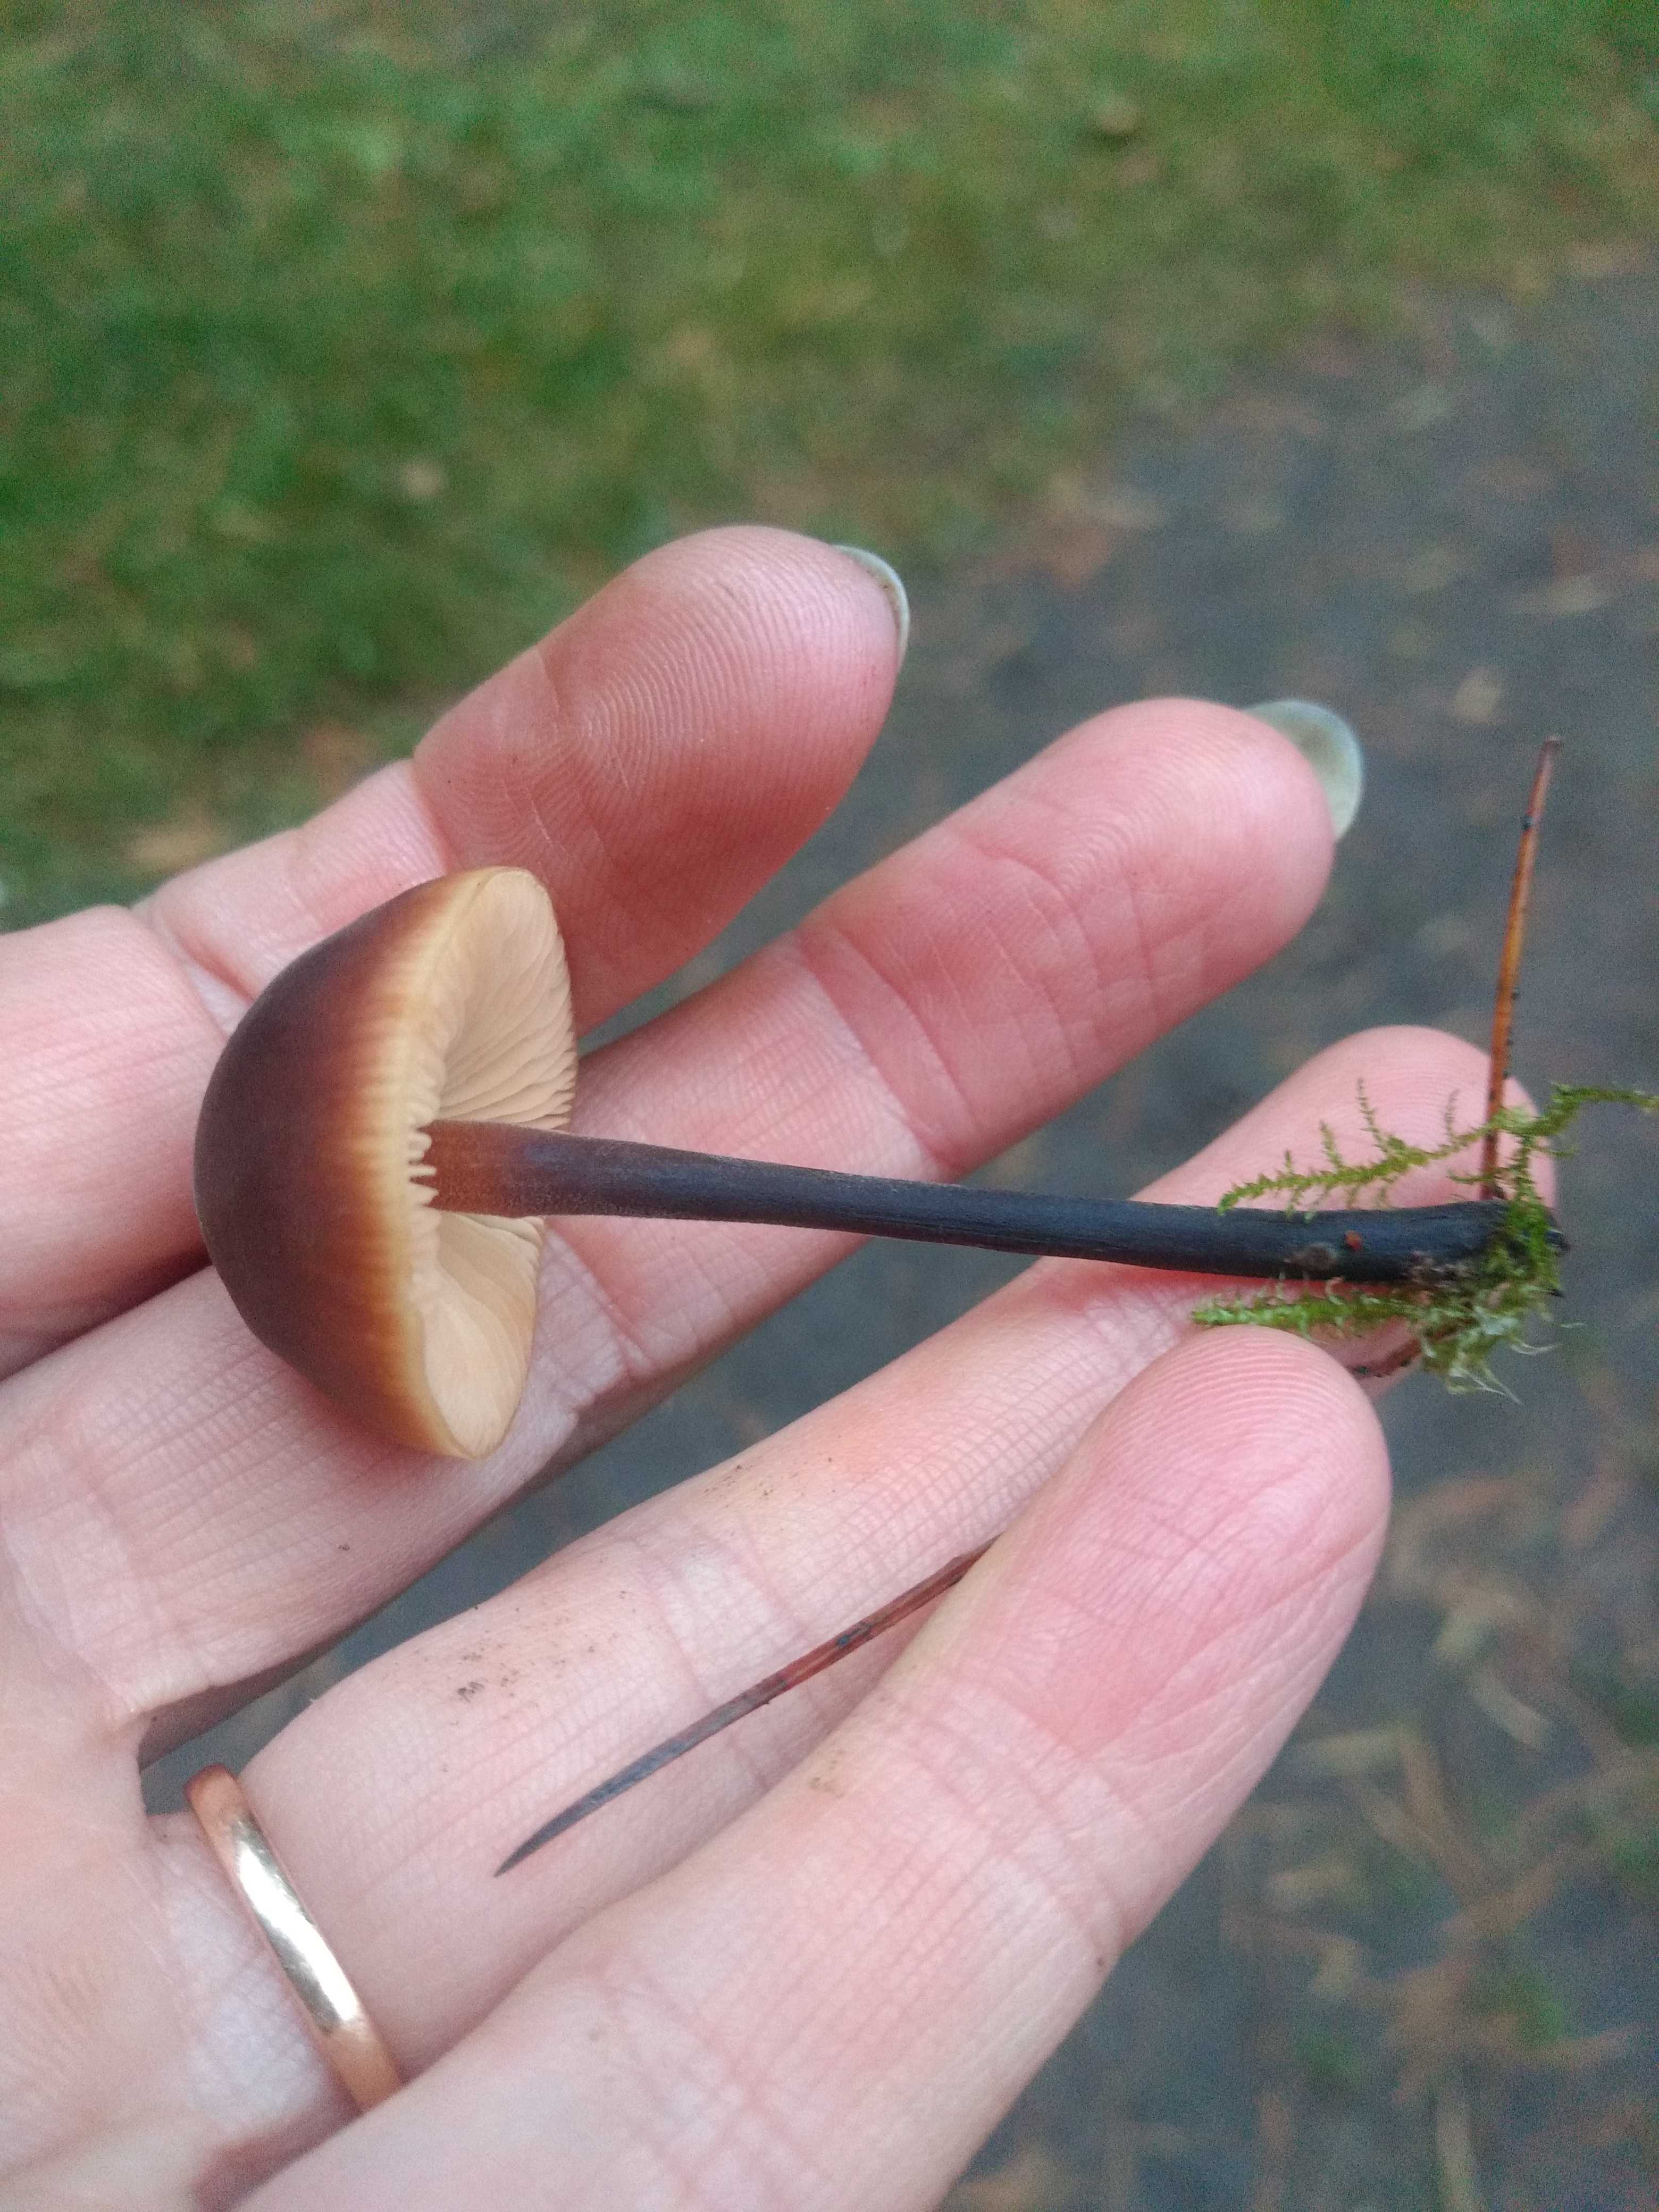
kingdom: Fungi
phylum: Basidiomycota
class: Agaricomycetes
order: Agaricales
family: Macrocystidiaceae
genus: Macrocystidia
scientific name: Macrocystidia cucumis
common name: agurkehat
